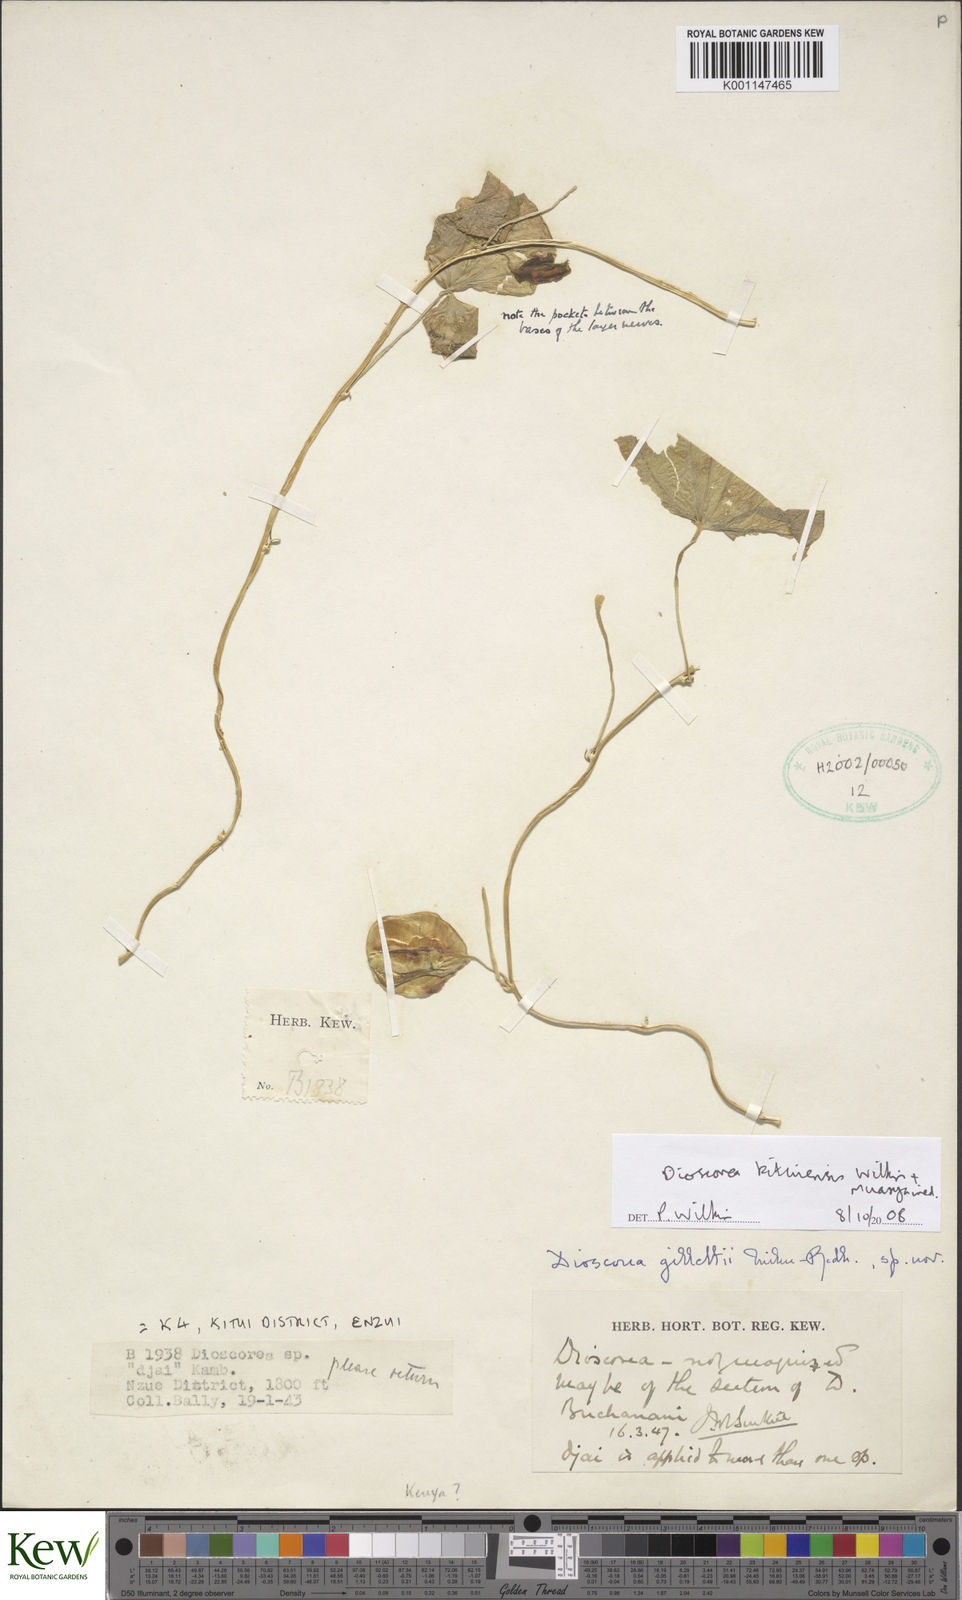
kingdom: Plantae
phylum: Tracheophyta
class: Liliopsida
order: Dioscoreales
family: Dioscoreaceae
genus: Dioscorea
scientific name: Dioscorea kituiensis
